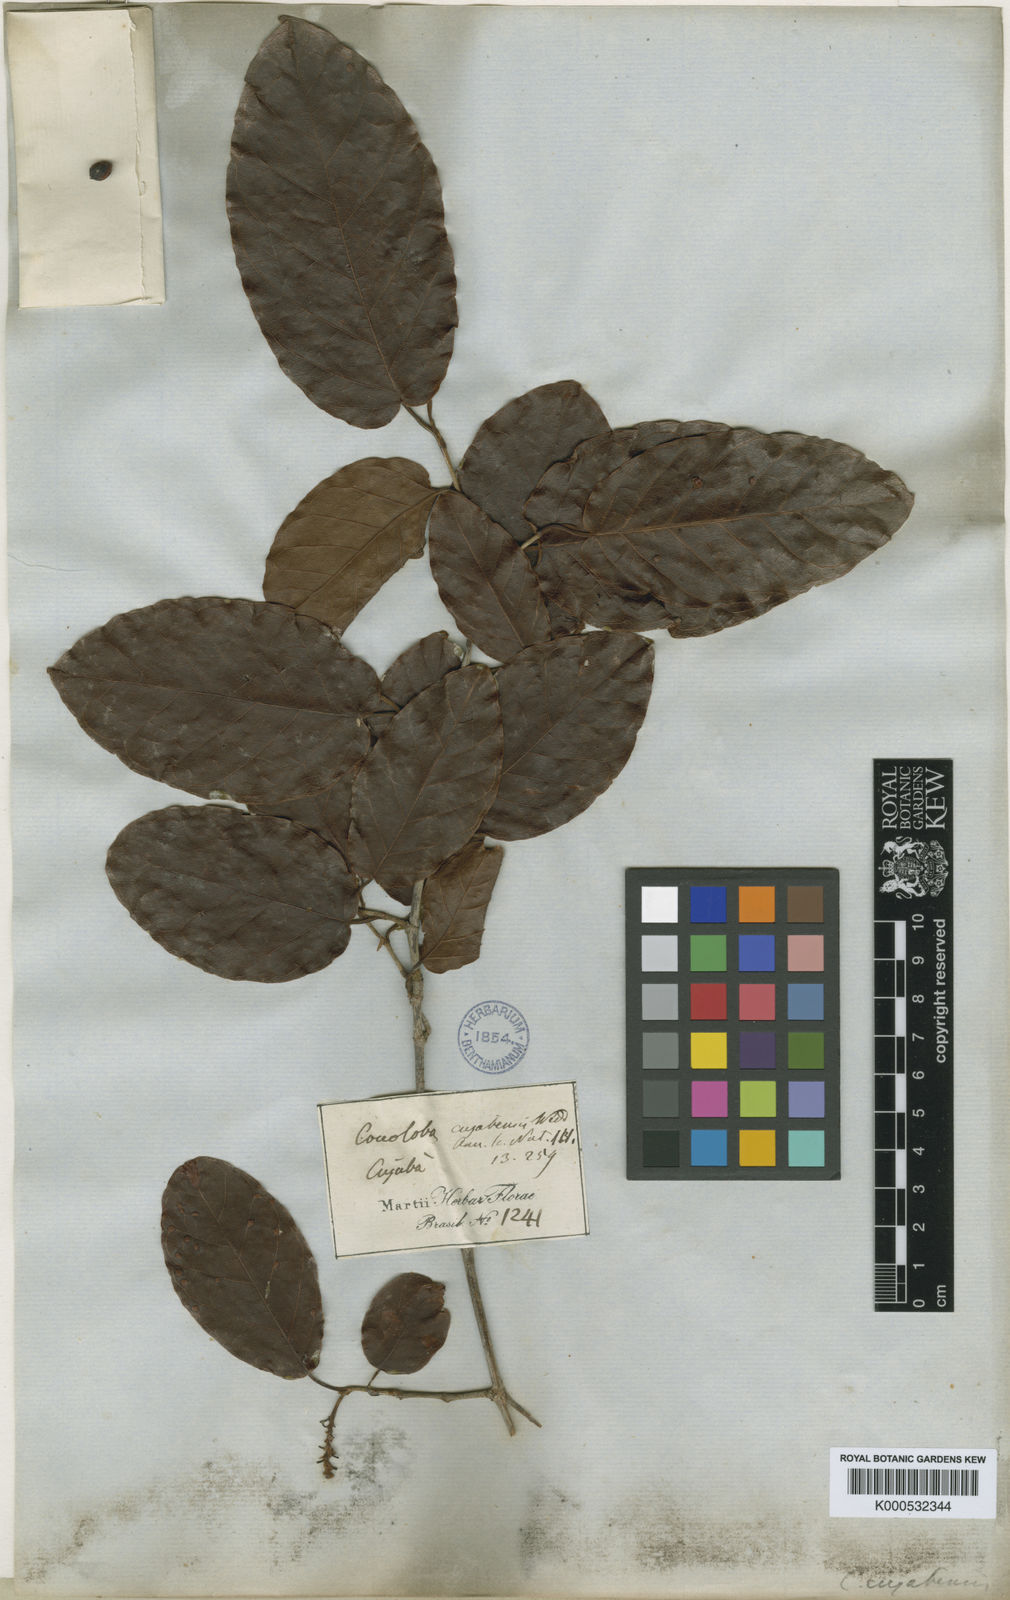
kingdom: Plantae
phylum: Tracheophyta
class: Magnoliopsida
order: Caryophyllales
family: Polygonaceae
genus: Coccoloba
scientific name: Coccoloba cujabensis
